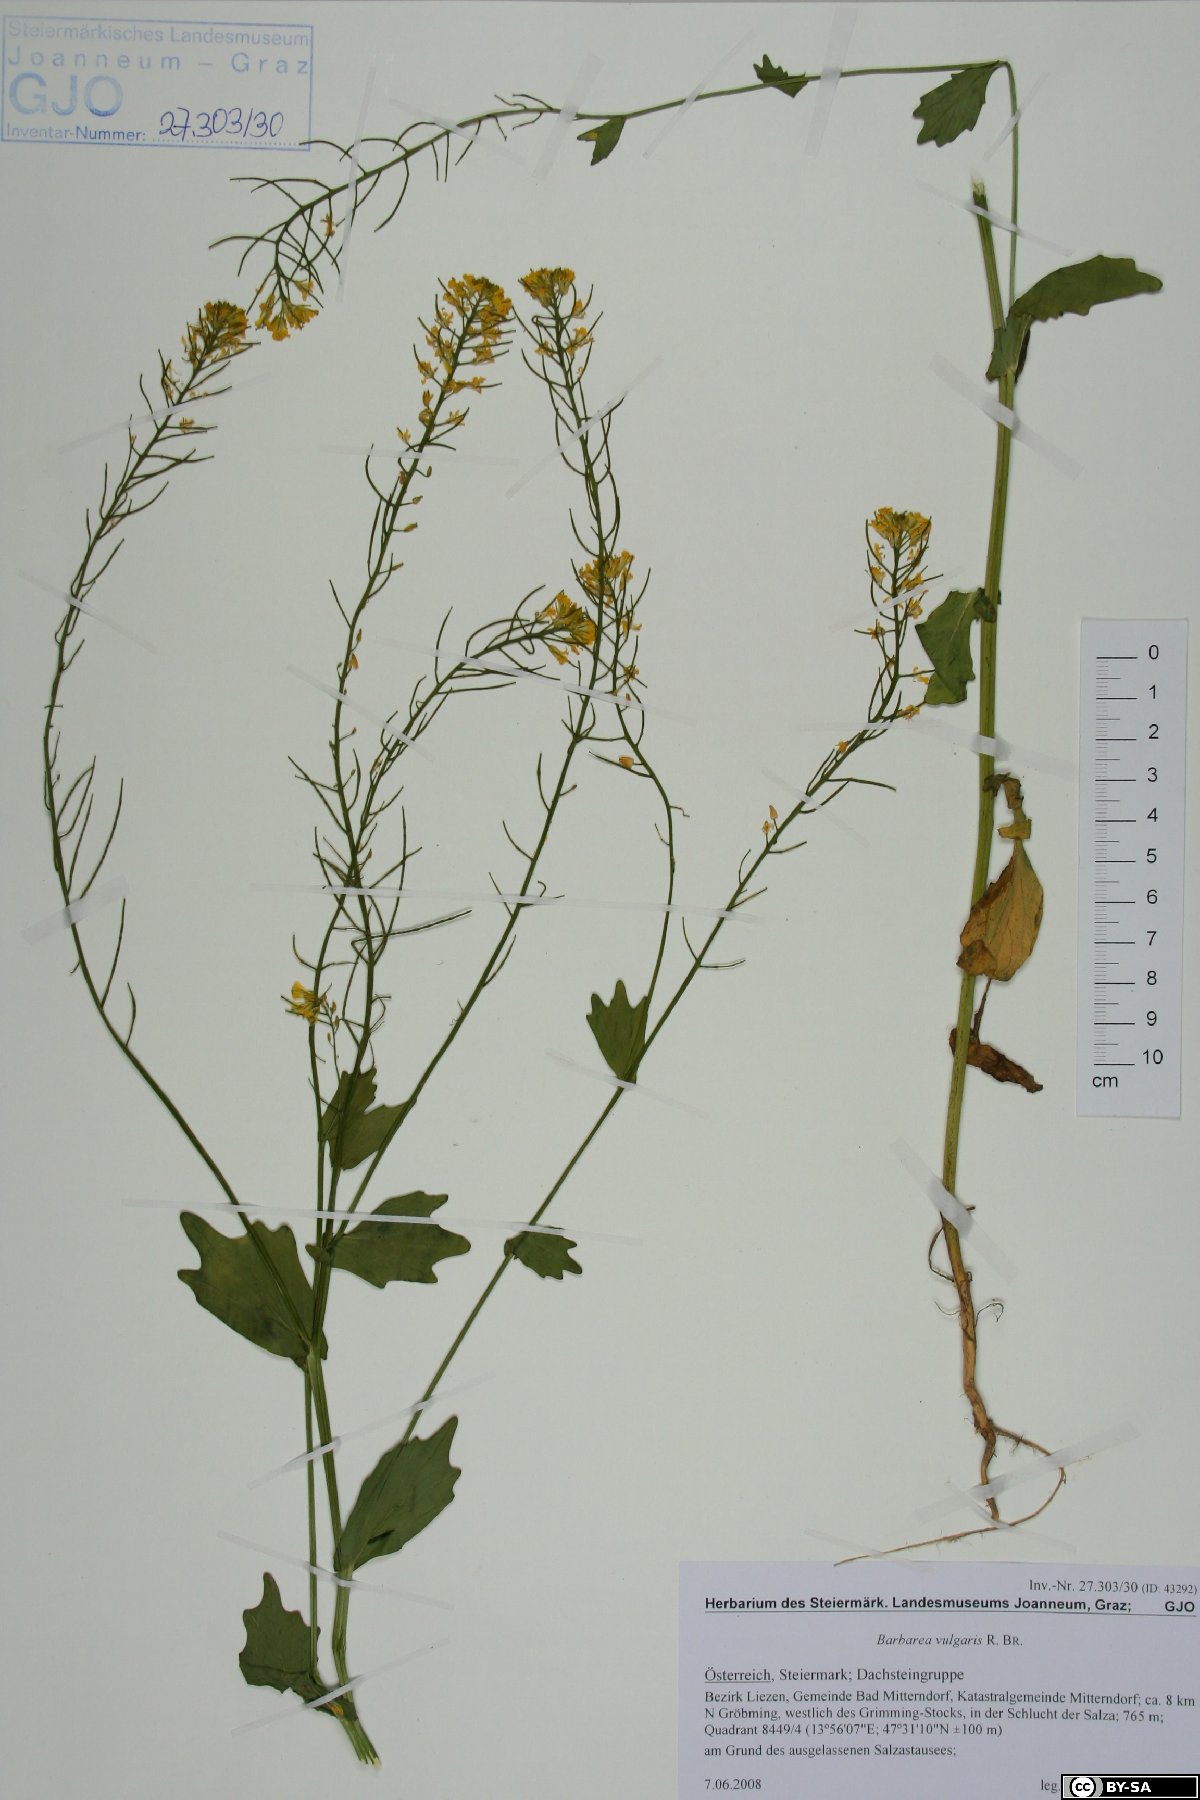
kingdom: Plantae
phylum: Tracheophyta
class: Magnoliopsida
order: Brassicales
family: Brassicaceae
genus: Barbarea
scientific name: Barbarea vulgaris
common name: Cressy-greens
